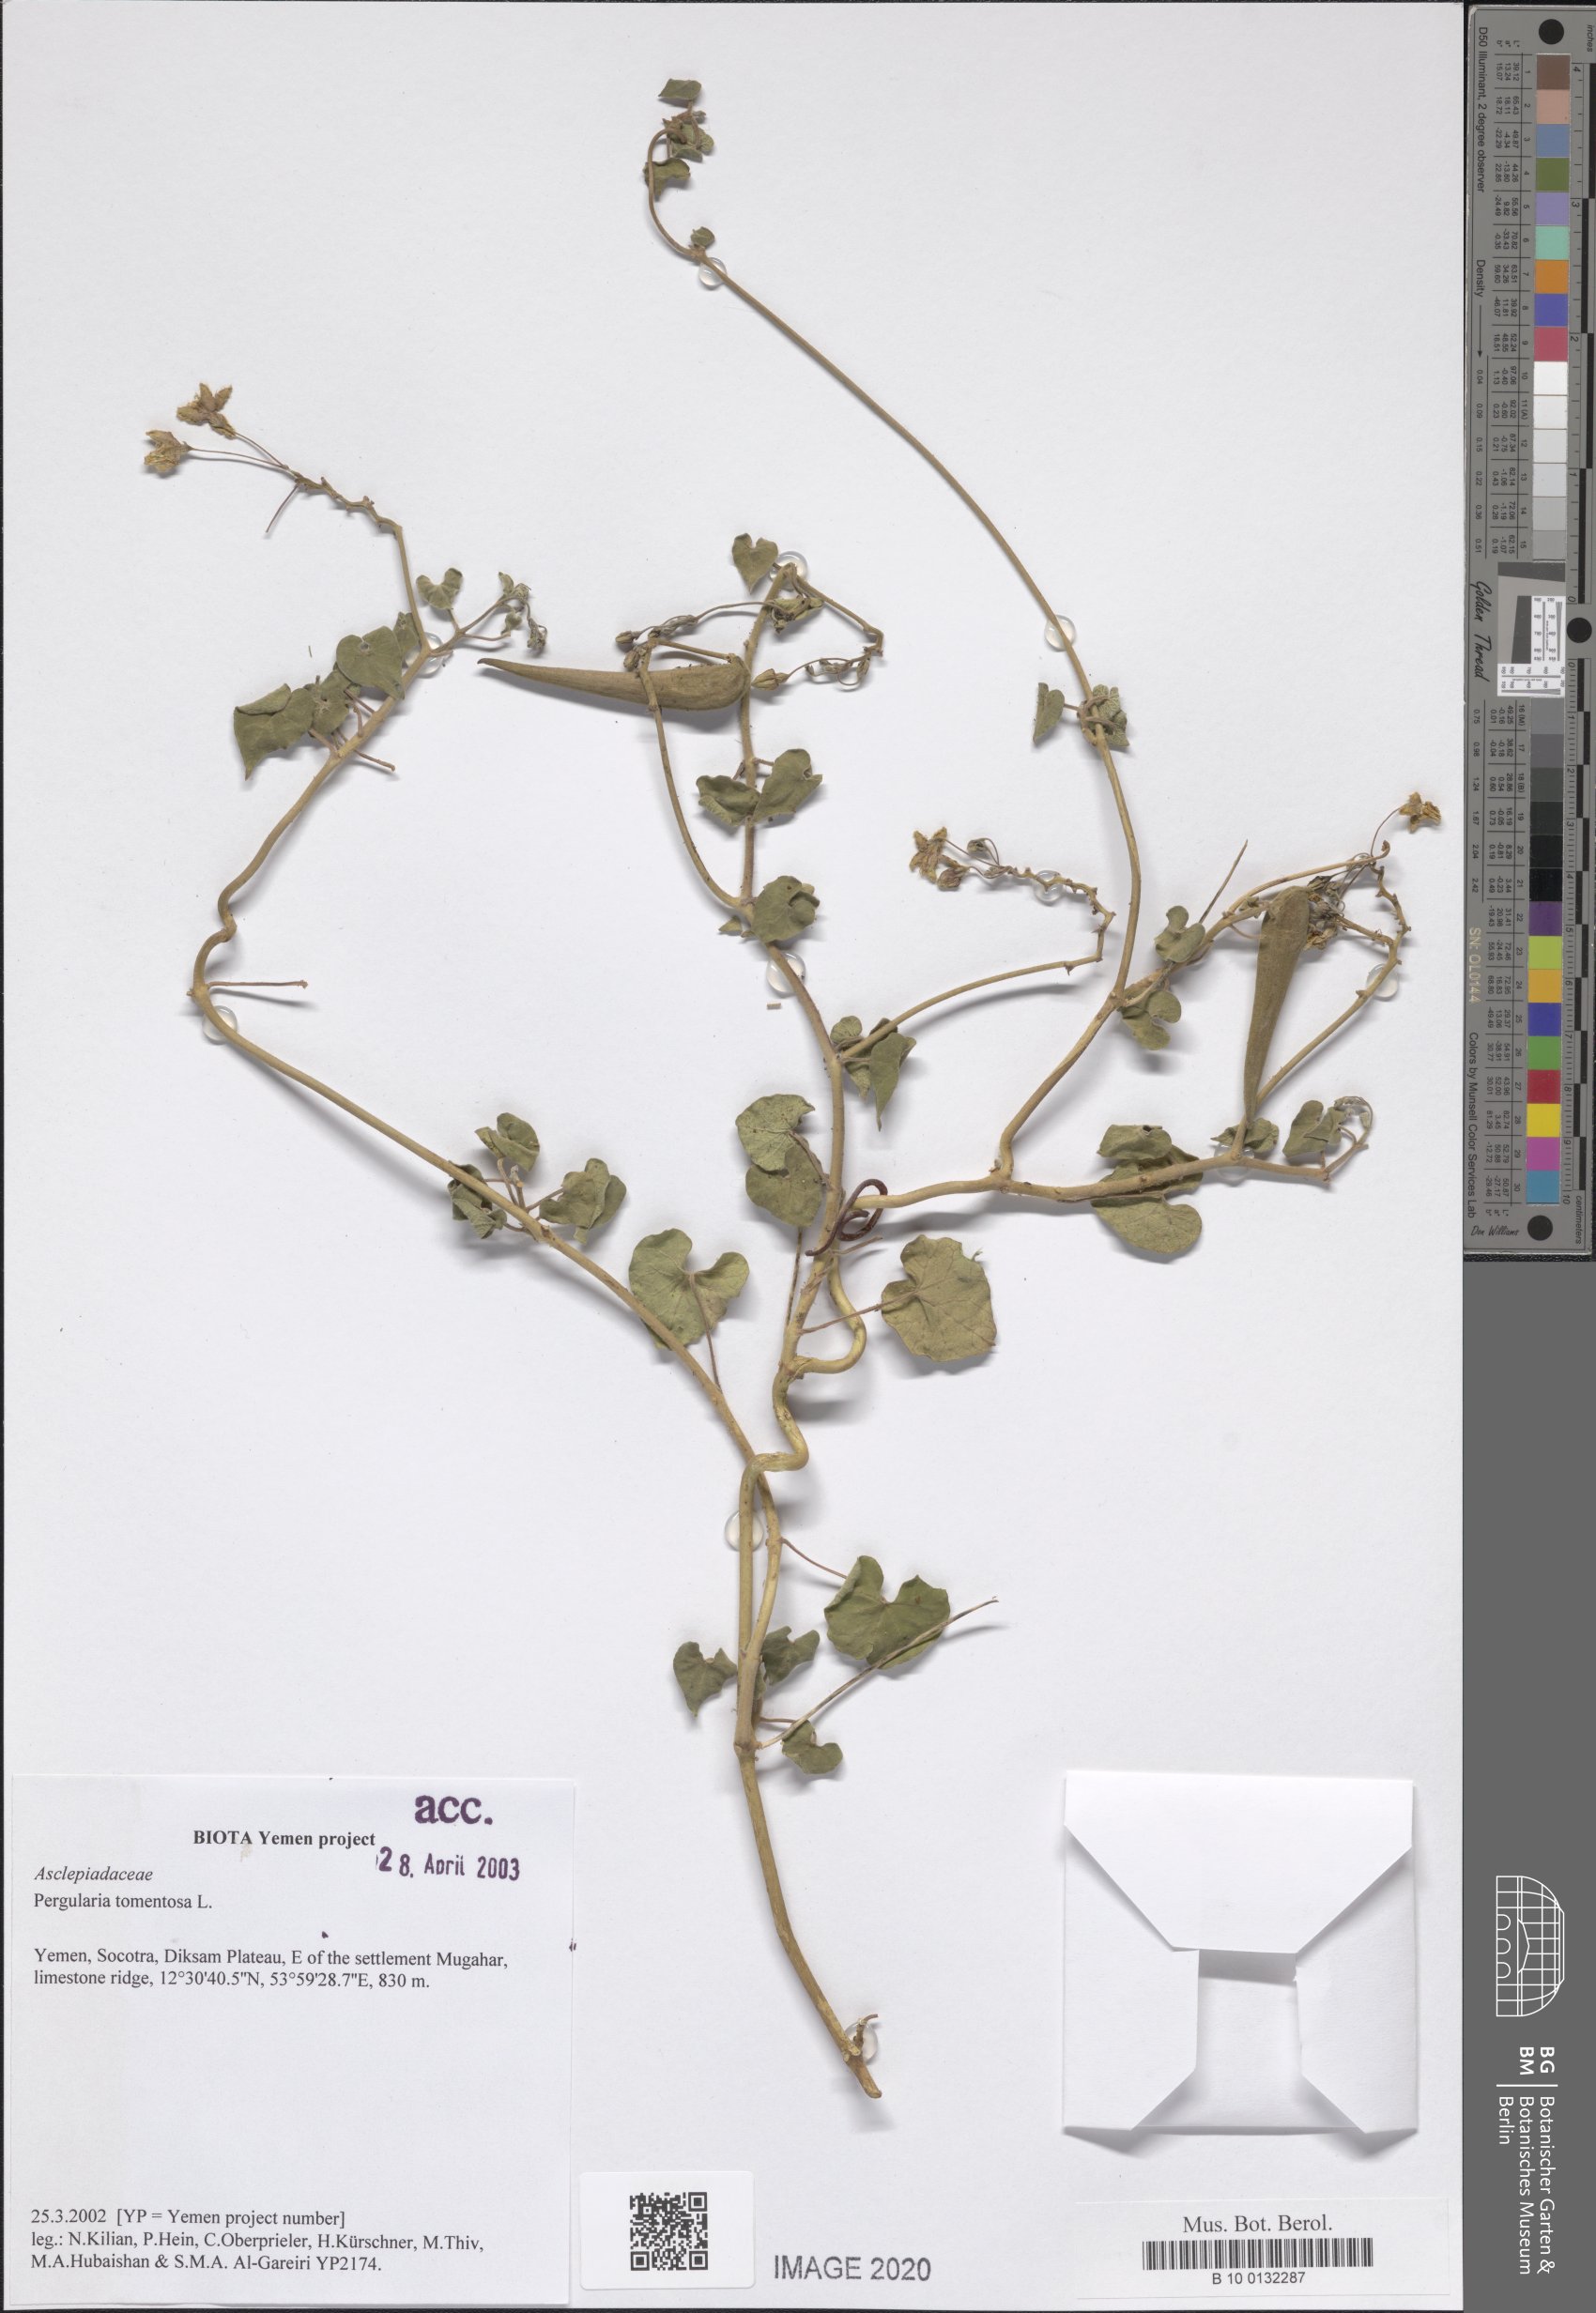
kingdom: Plantae
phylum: Tracheophyta
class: Magnoliopsida
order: Gentianales
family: Apocynaceae
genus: Pergularia
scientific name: Pergularia tomentosa
